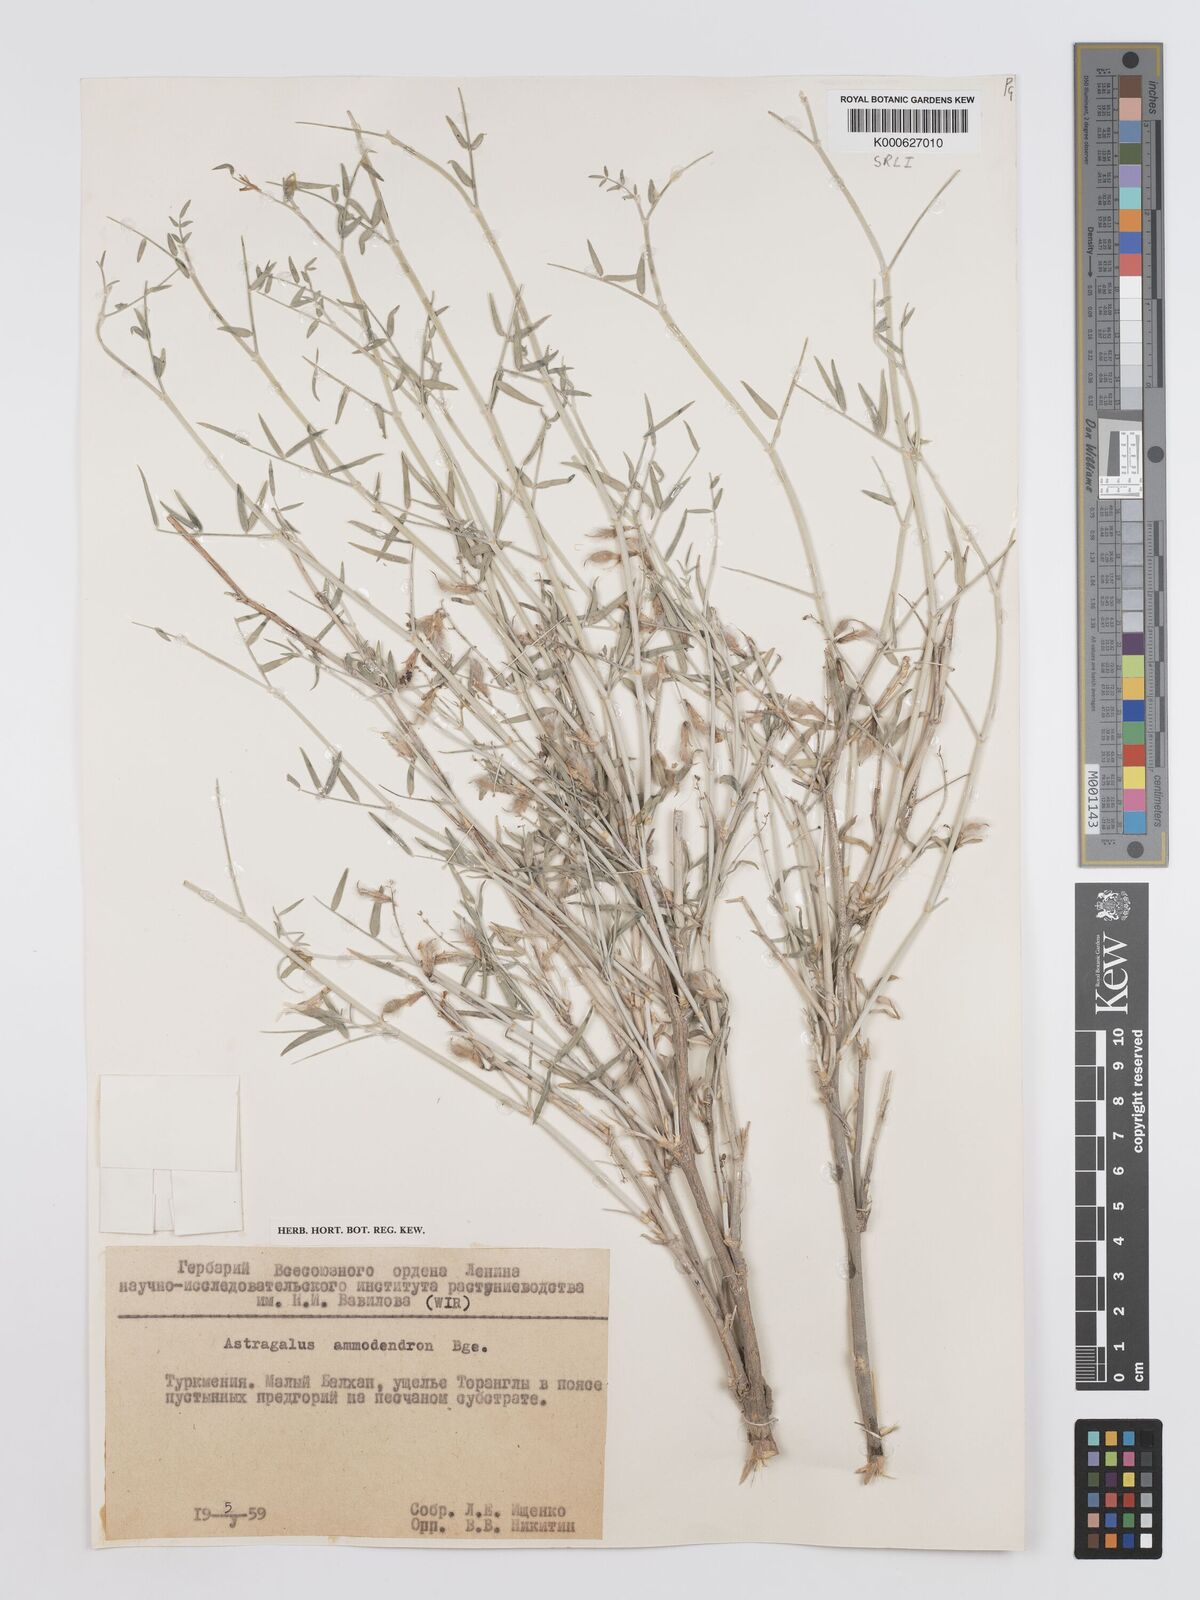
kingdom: Plantae
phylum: Tracheophyta
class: Magnoliopsida
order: Fabales
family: Fabaceae
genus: Astragalus
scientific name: Astragalus ammodendron
